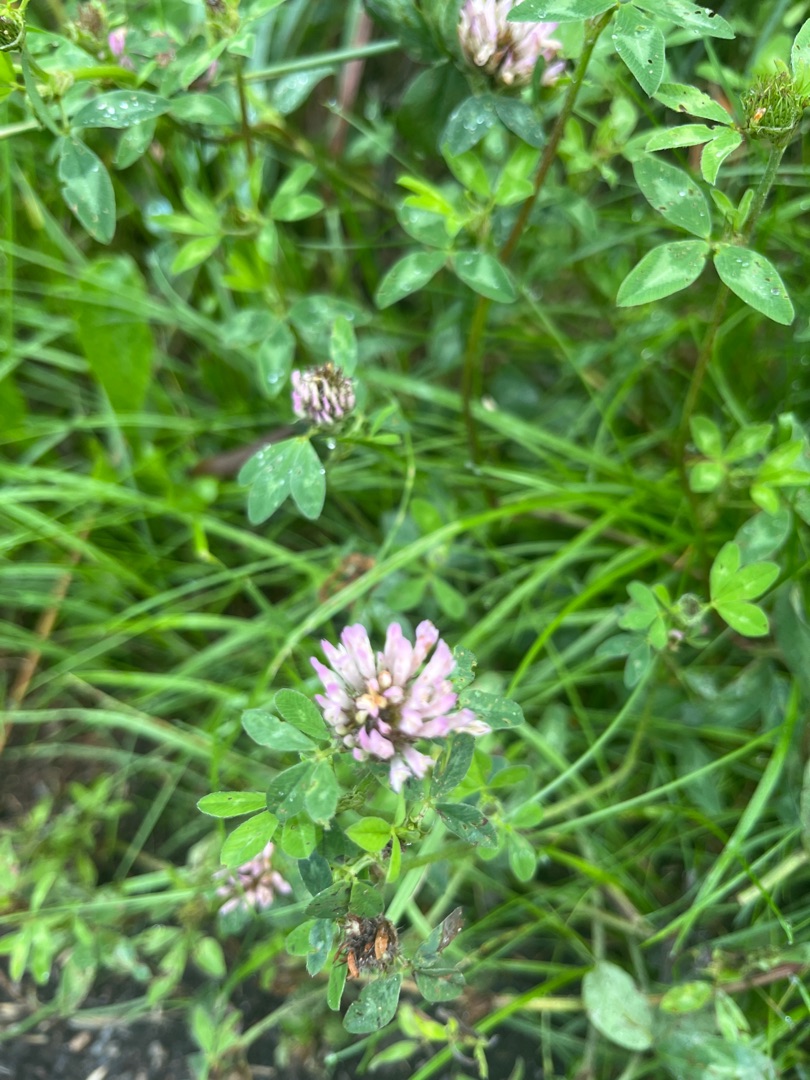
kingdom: Plantae
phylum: Tracheophyta
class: Magnoliopsida
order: Fabales
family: Fabaceae
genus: Trifolium
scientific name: Trifolium pratense
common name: Rød-kløver
